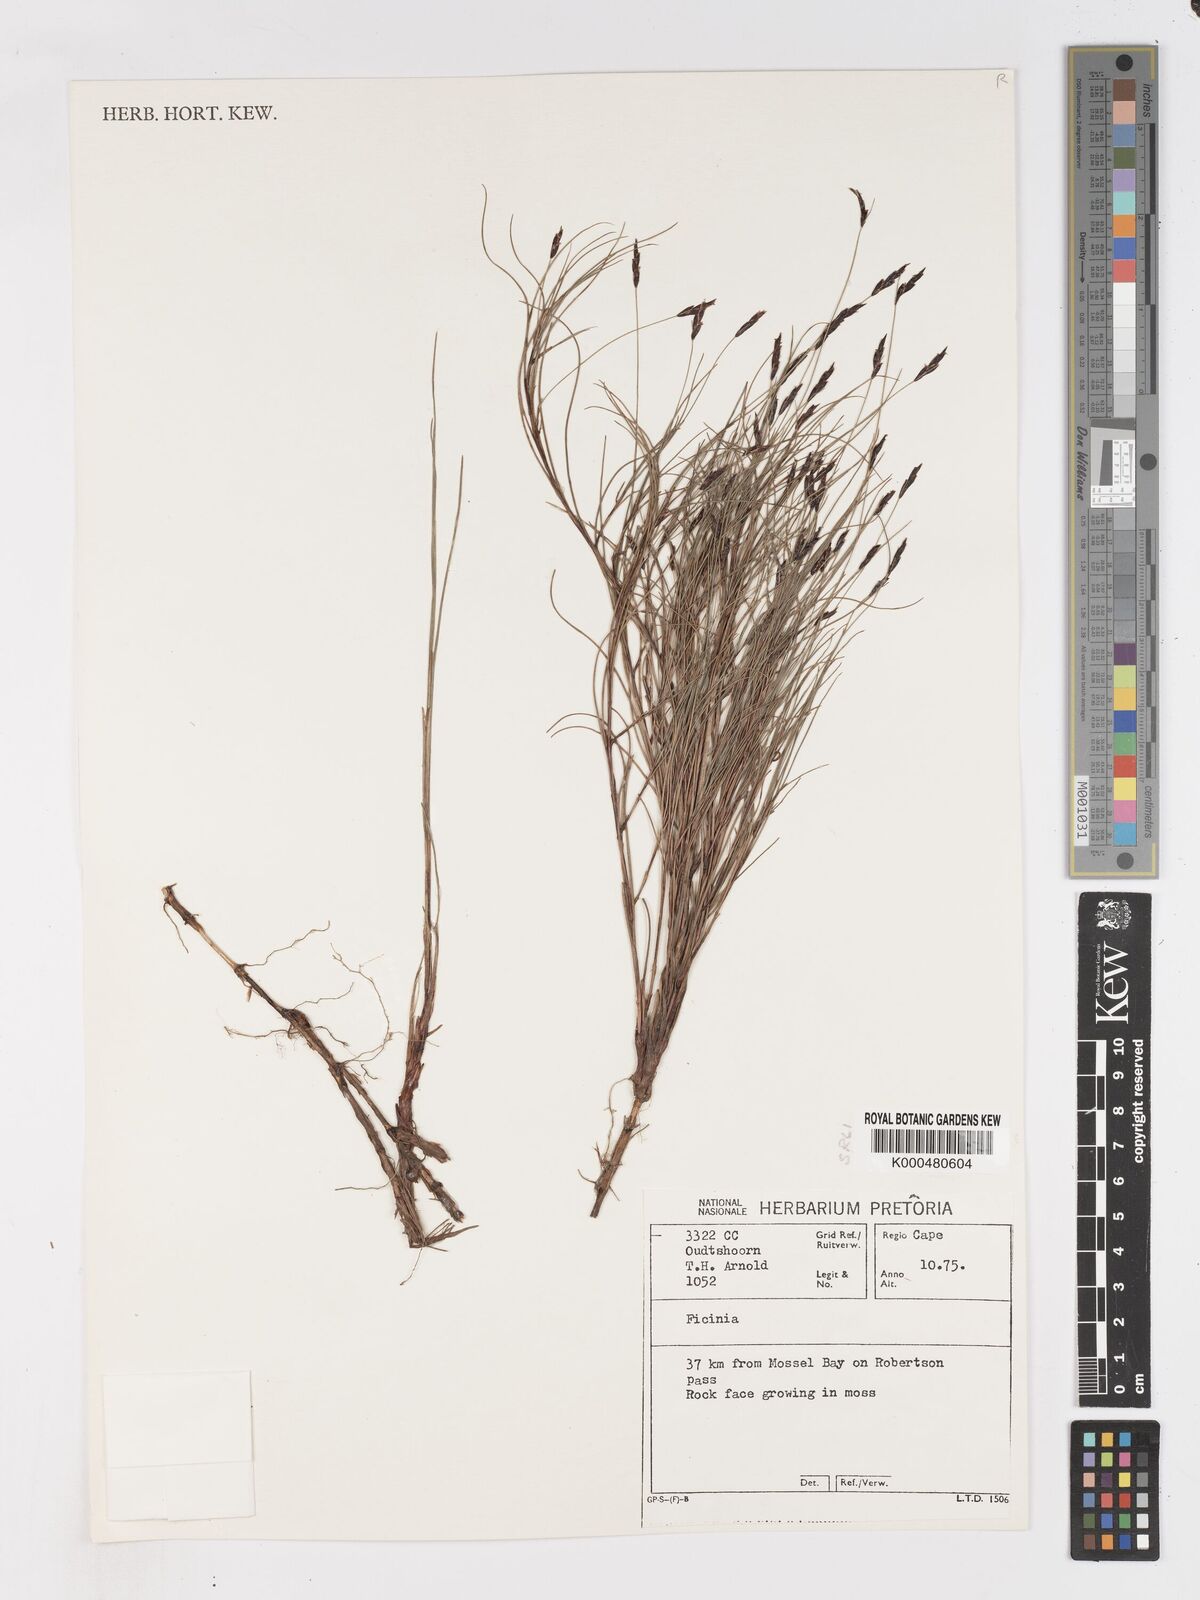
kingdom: Plantae
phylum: Tracheophyta
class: Liliopsida
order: Poales
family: Cyperaceae
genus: Ficinia
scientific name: Ficinia capillifolia
